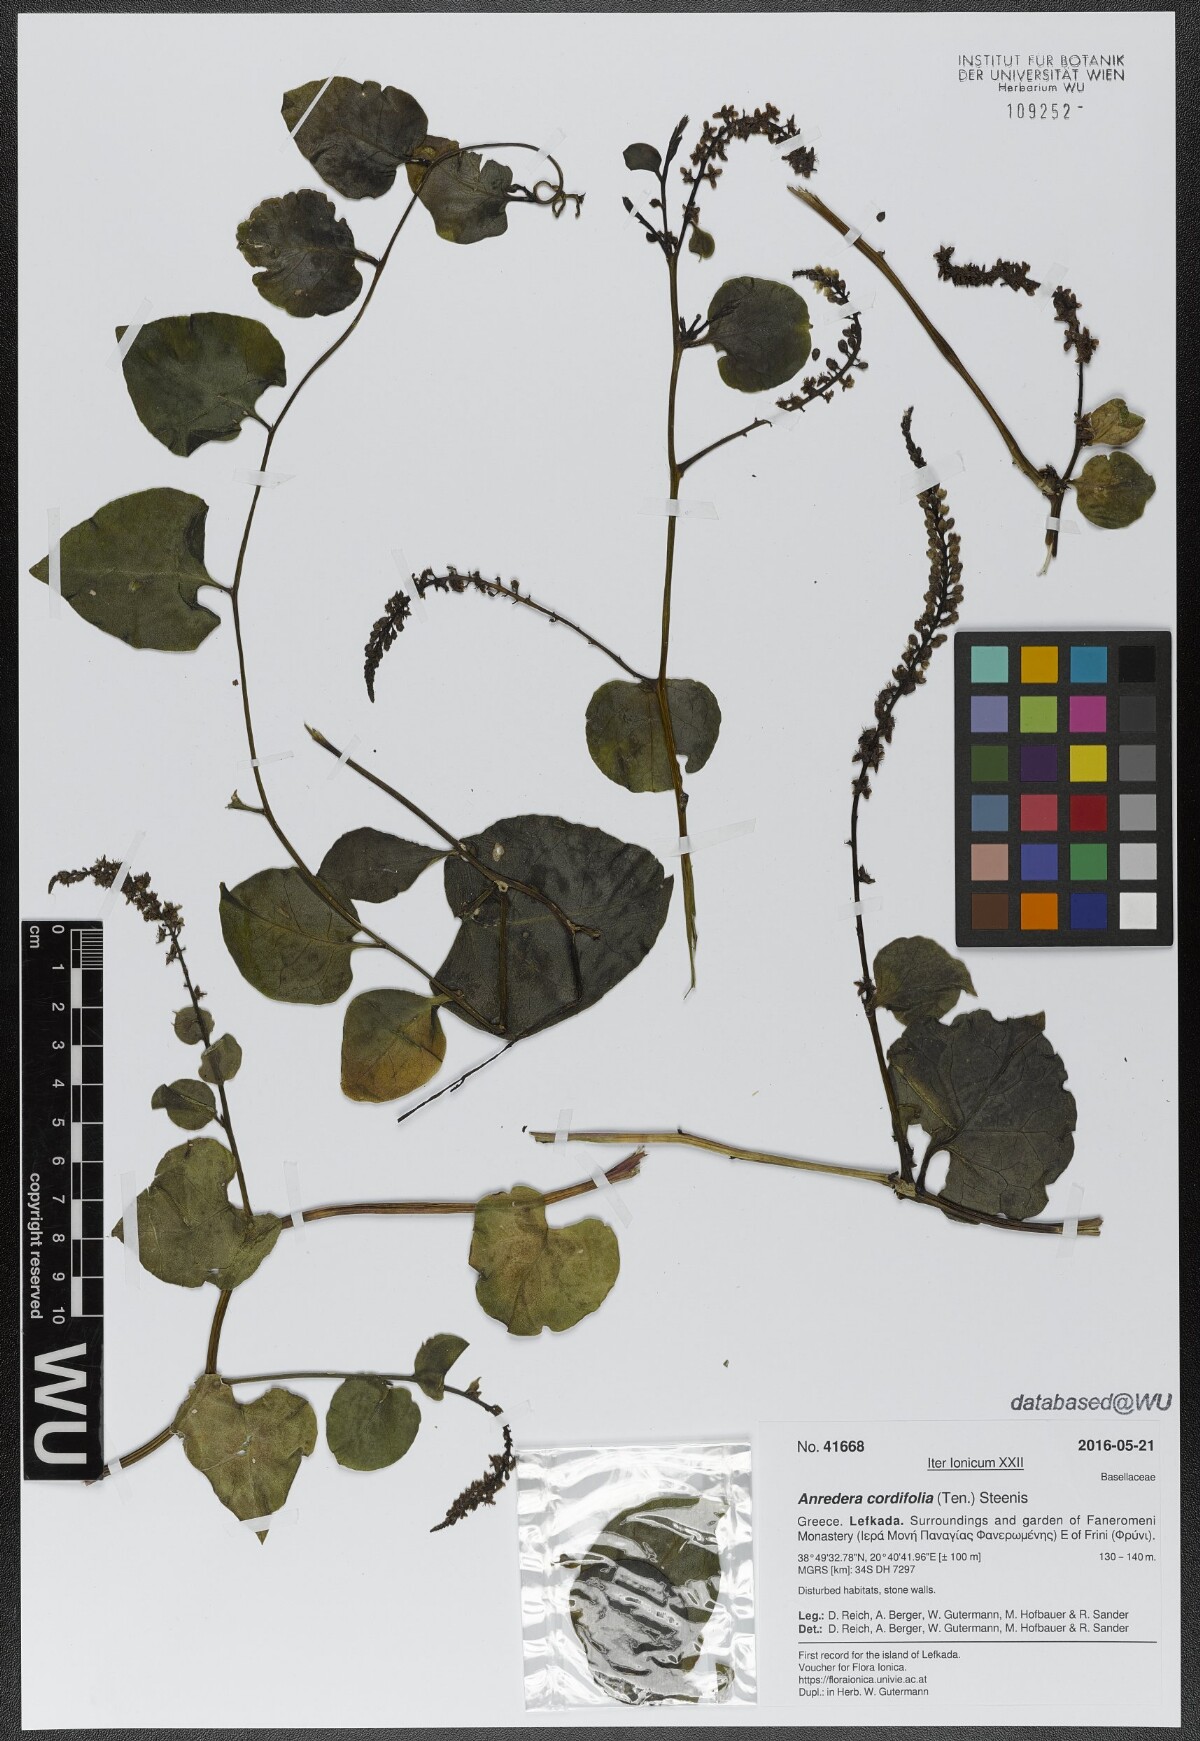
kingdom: Plantae
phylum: Tracheophyta
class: Magnoliopsida
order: Caryophyllales
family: Basellaceae
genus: Anredera
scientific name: Anredera cordifolia
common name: Heartleaf madeiravine
